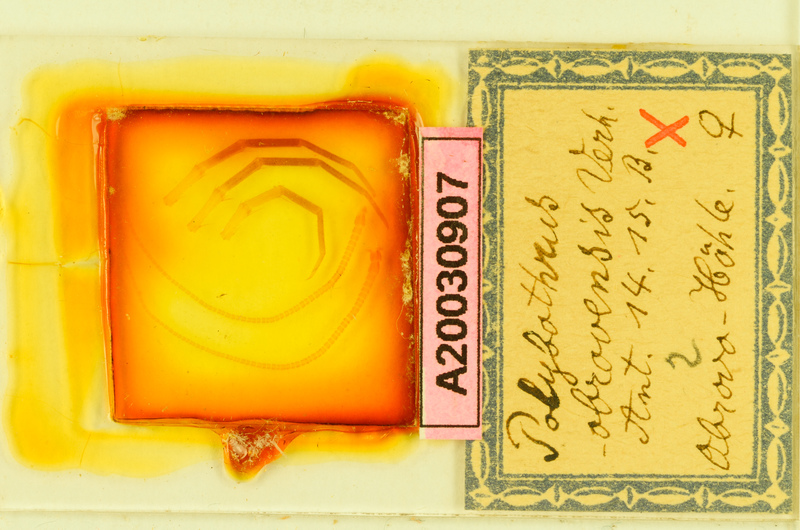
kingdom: Animalia
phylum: Arthropoda
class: Chilopoda
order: Lithobiomorpha
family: Lithobiidae
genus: Polybothrus
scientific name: Polybothrus obrovensis
